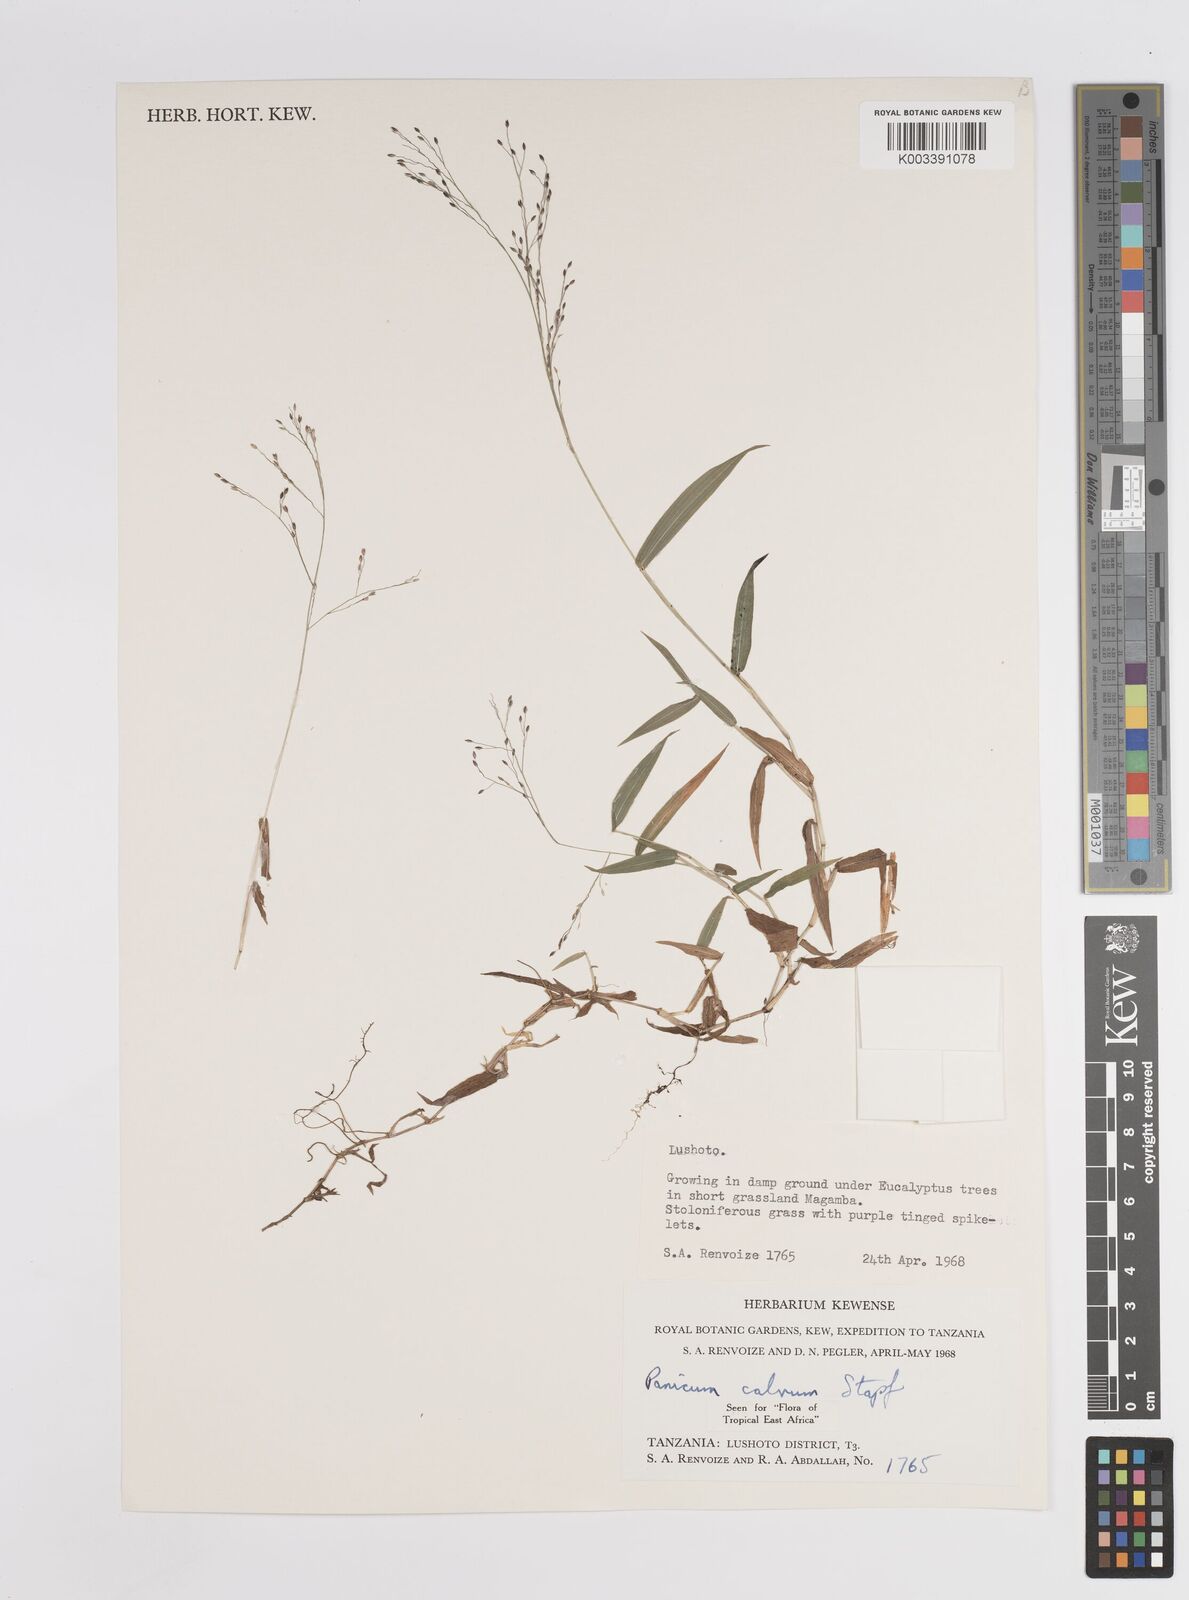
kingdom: Plantae
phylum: Tracheophyta
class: Liliopsida
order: Poales
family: Poaceae
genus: Panicum
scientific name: Panicum calvum
